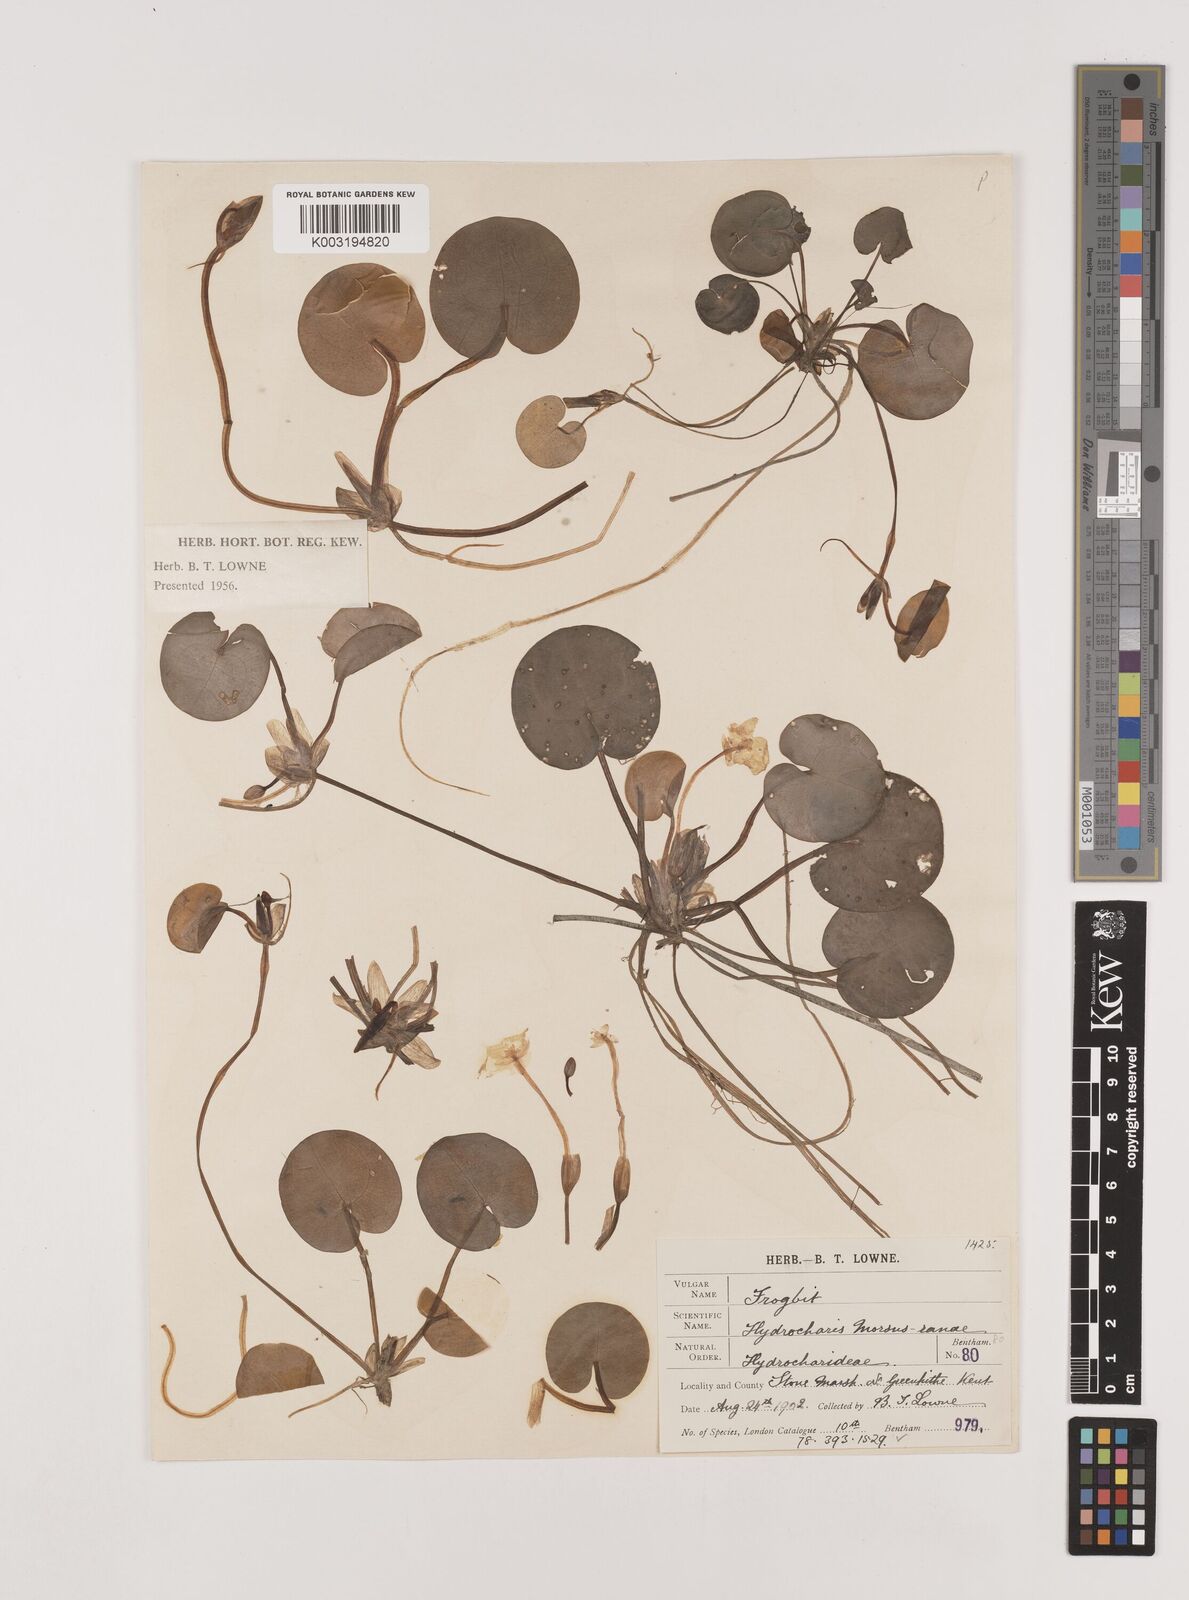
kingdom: Plantae
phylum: Tracheophyta
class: Liliopsida
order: Alismatales
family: Hydrocharitaceae
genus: Hydrocharis
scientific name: Hydrocharis morsus-ranae
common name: Frogbit
